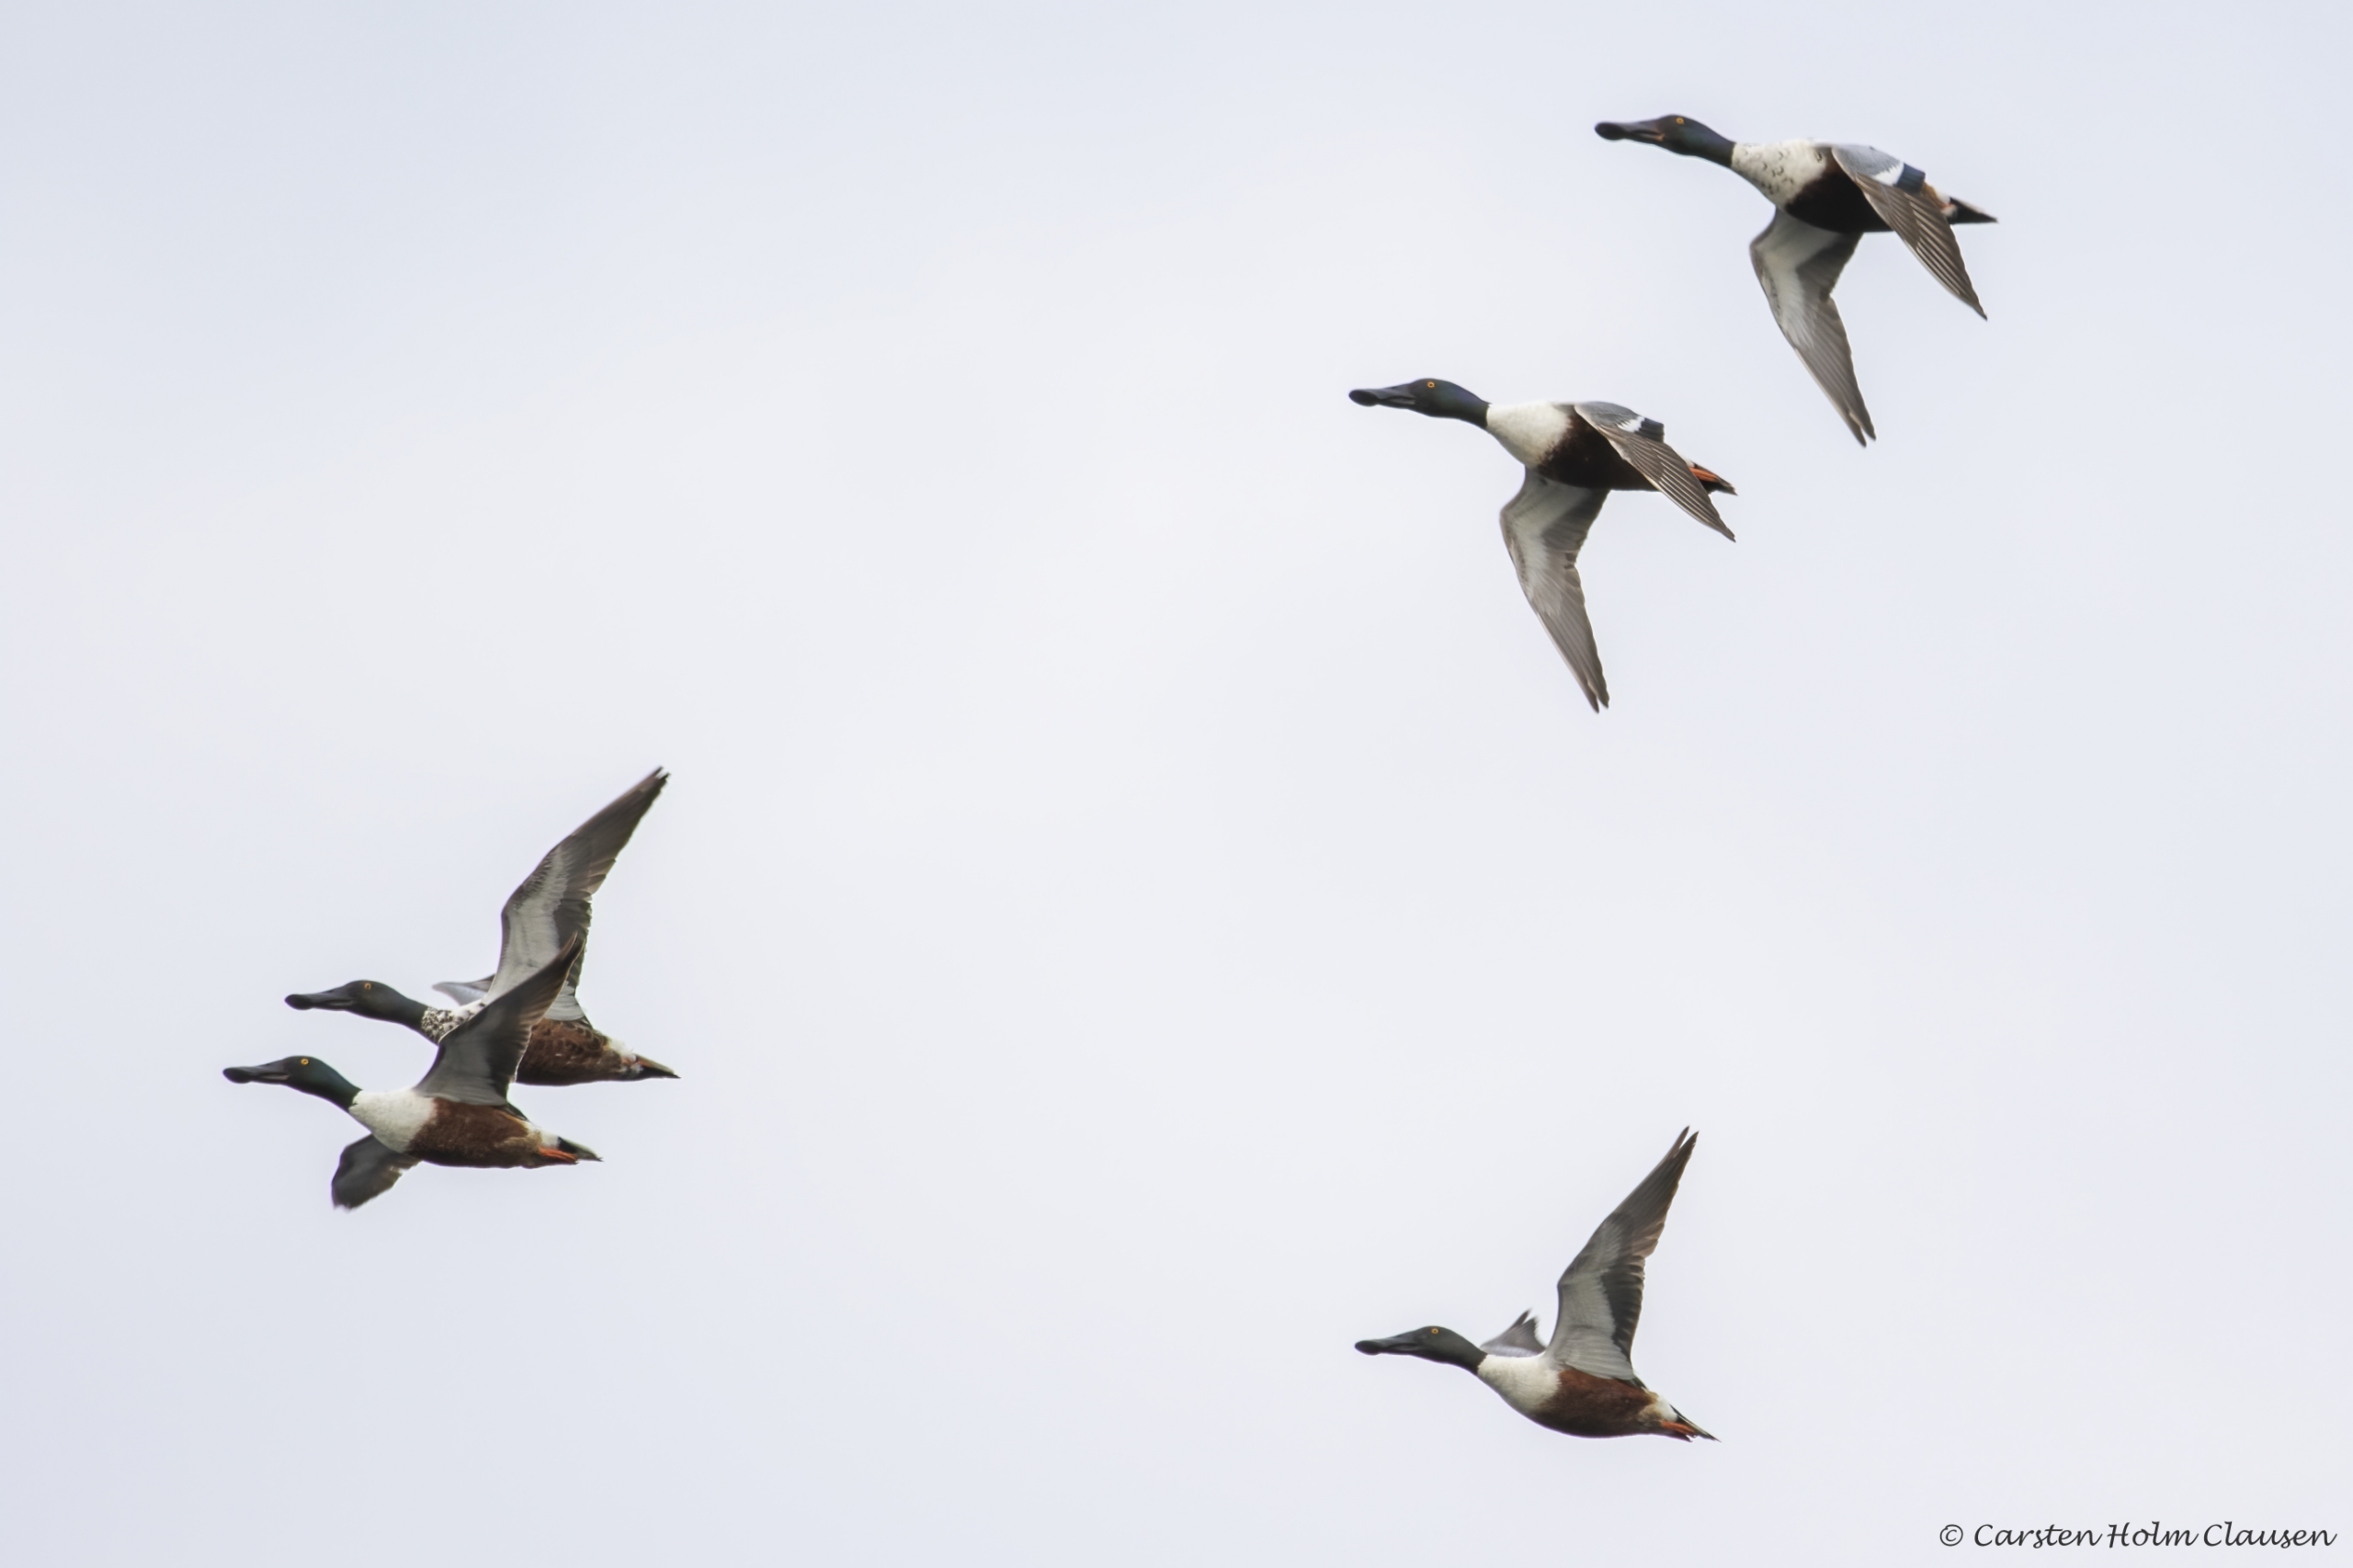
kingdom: Animalia
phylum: Chordata
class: Aves
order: Anseriformes
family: Anatidae
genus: Spatula
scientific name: Spatula clypeata
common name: Skeand
